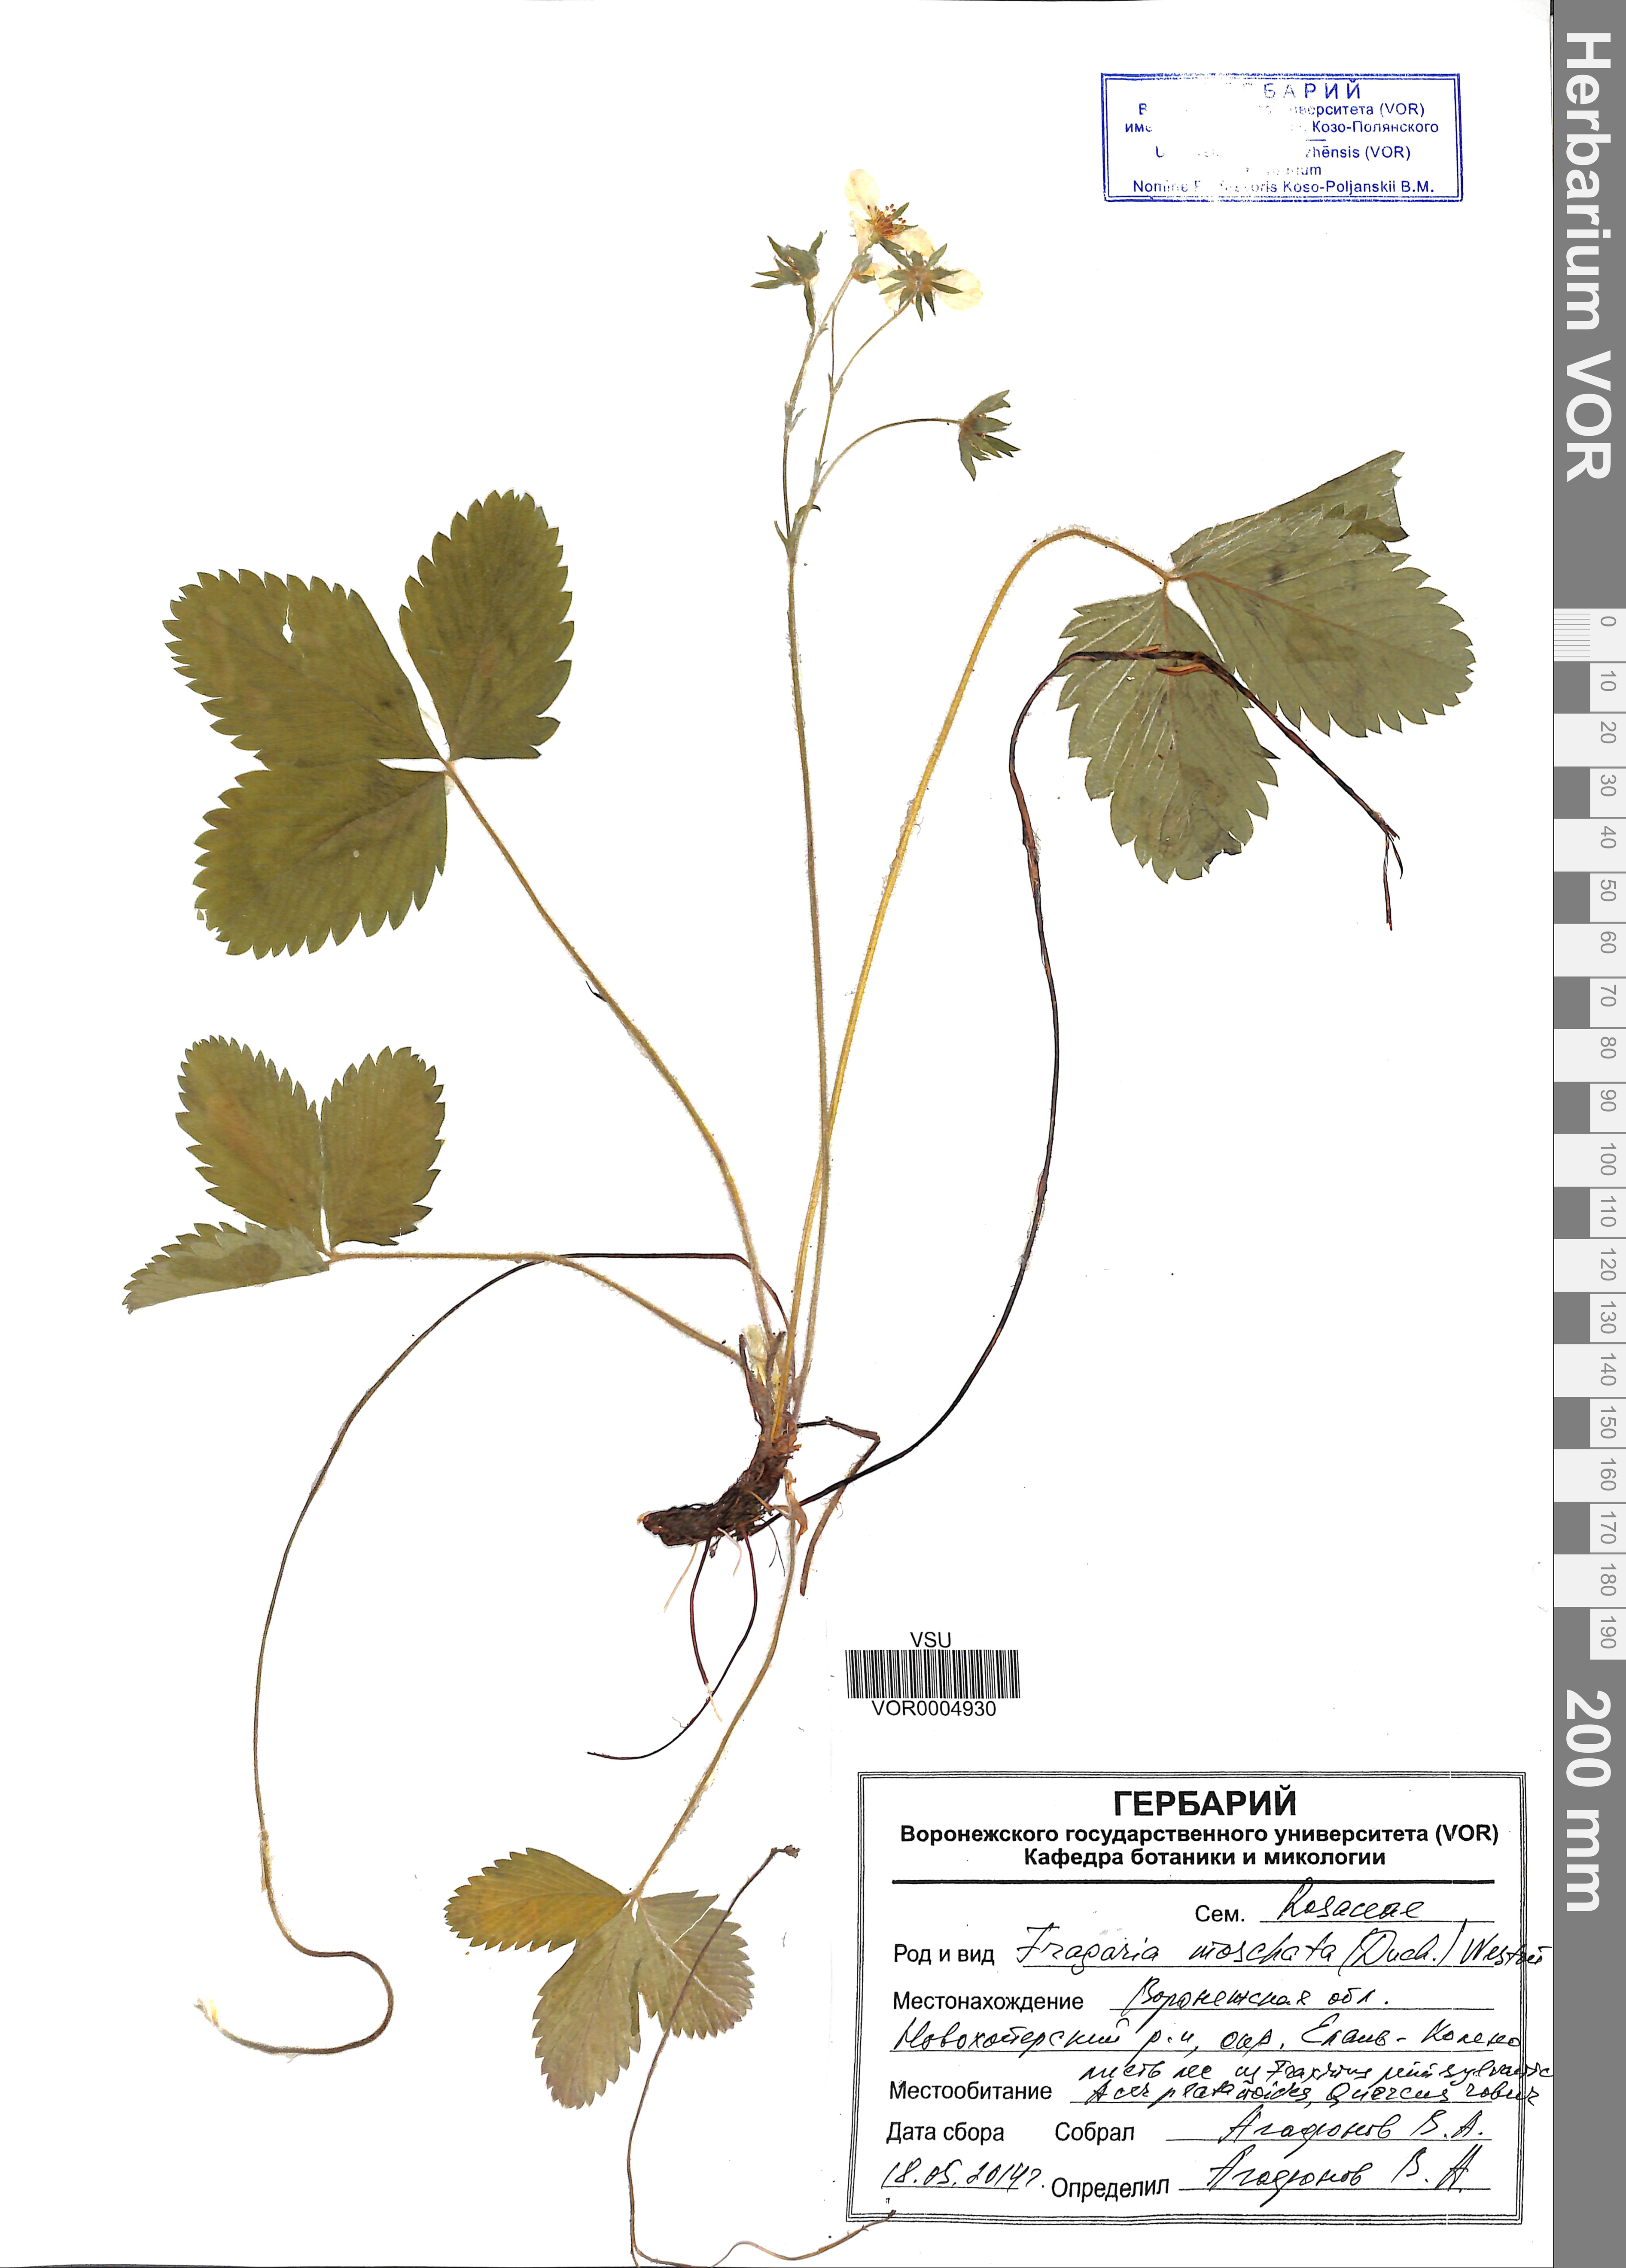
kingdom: Plantae
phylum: Tracheophyta
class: Magnoliopsida
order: Rosales
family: Rosaceae
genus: Fragaria
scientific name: Fragaria moschata
